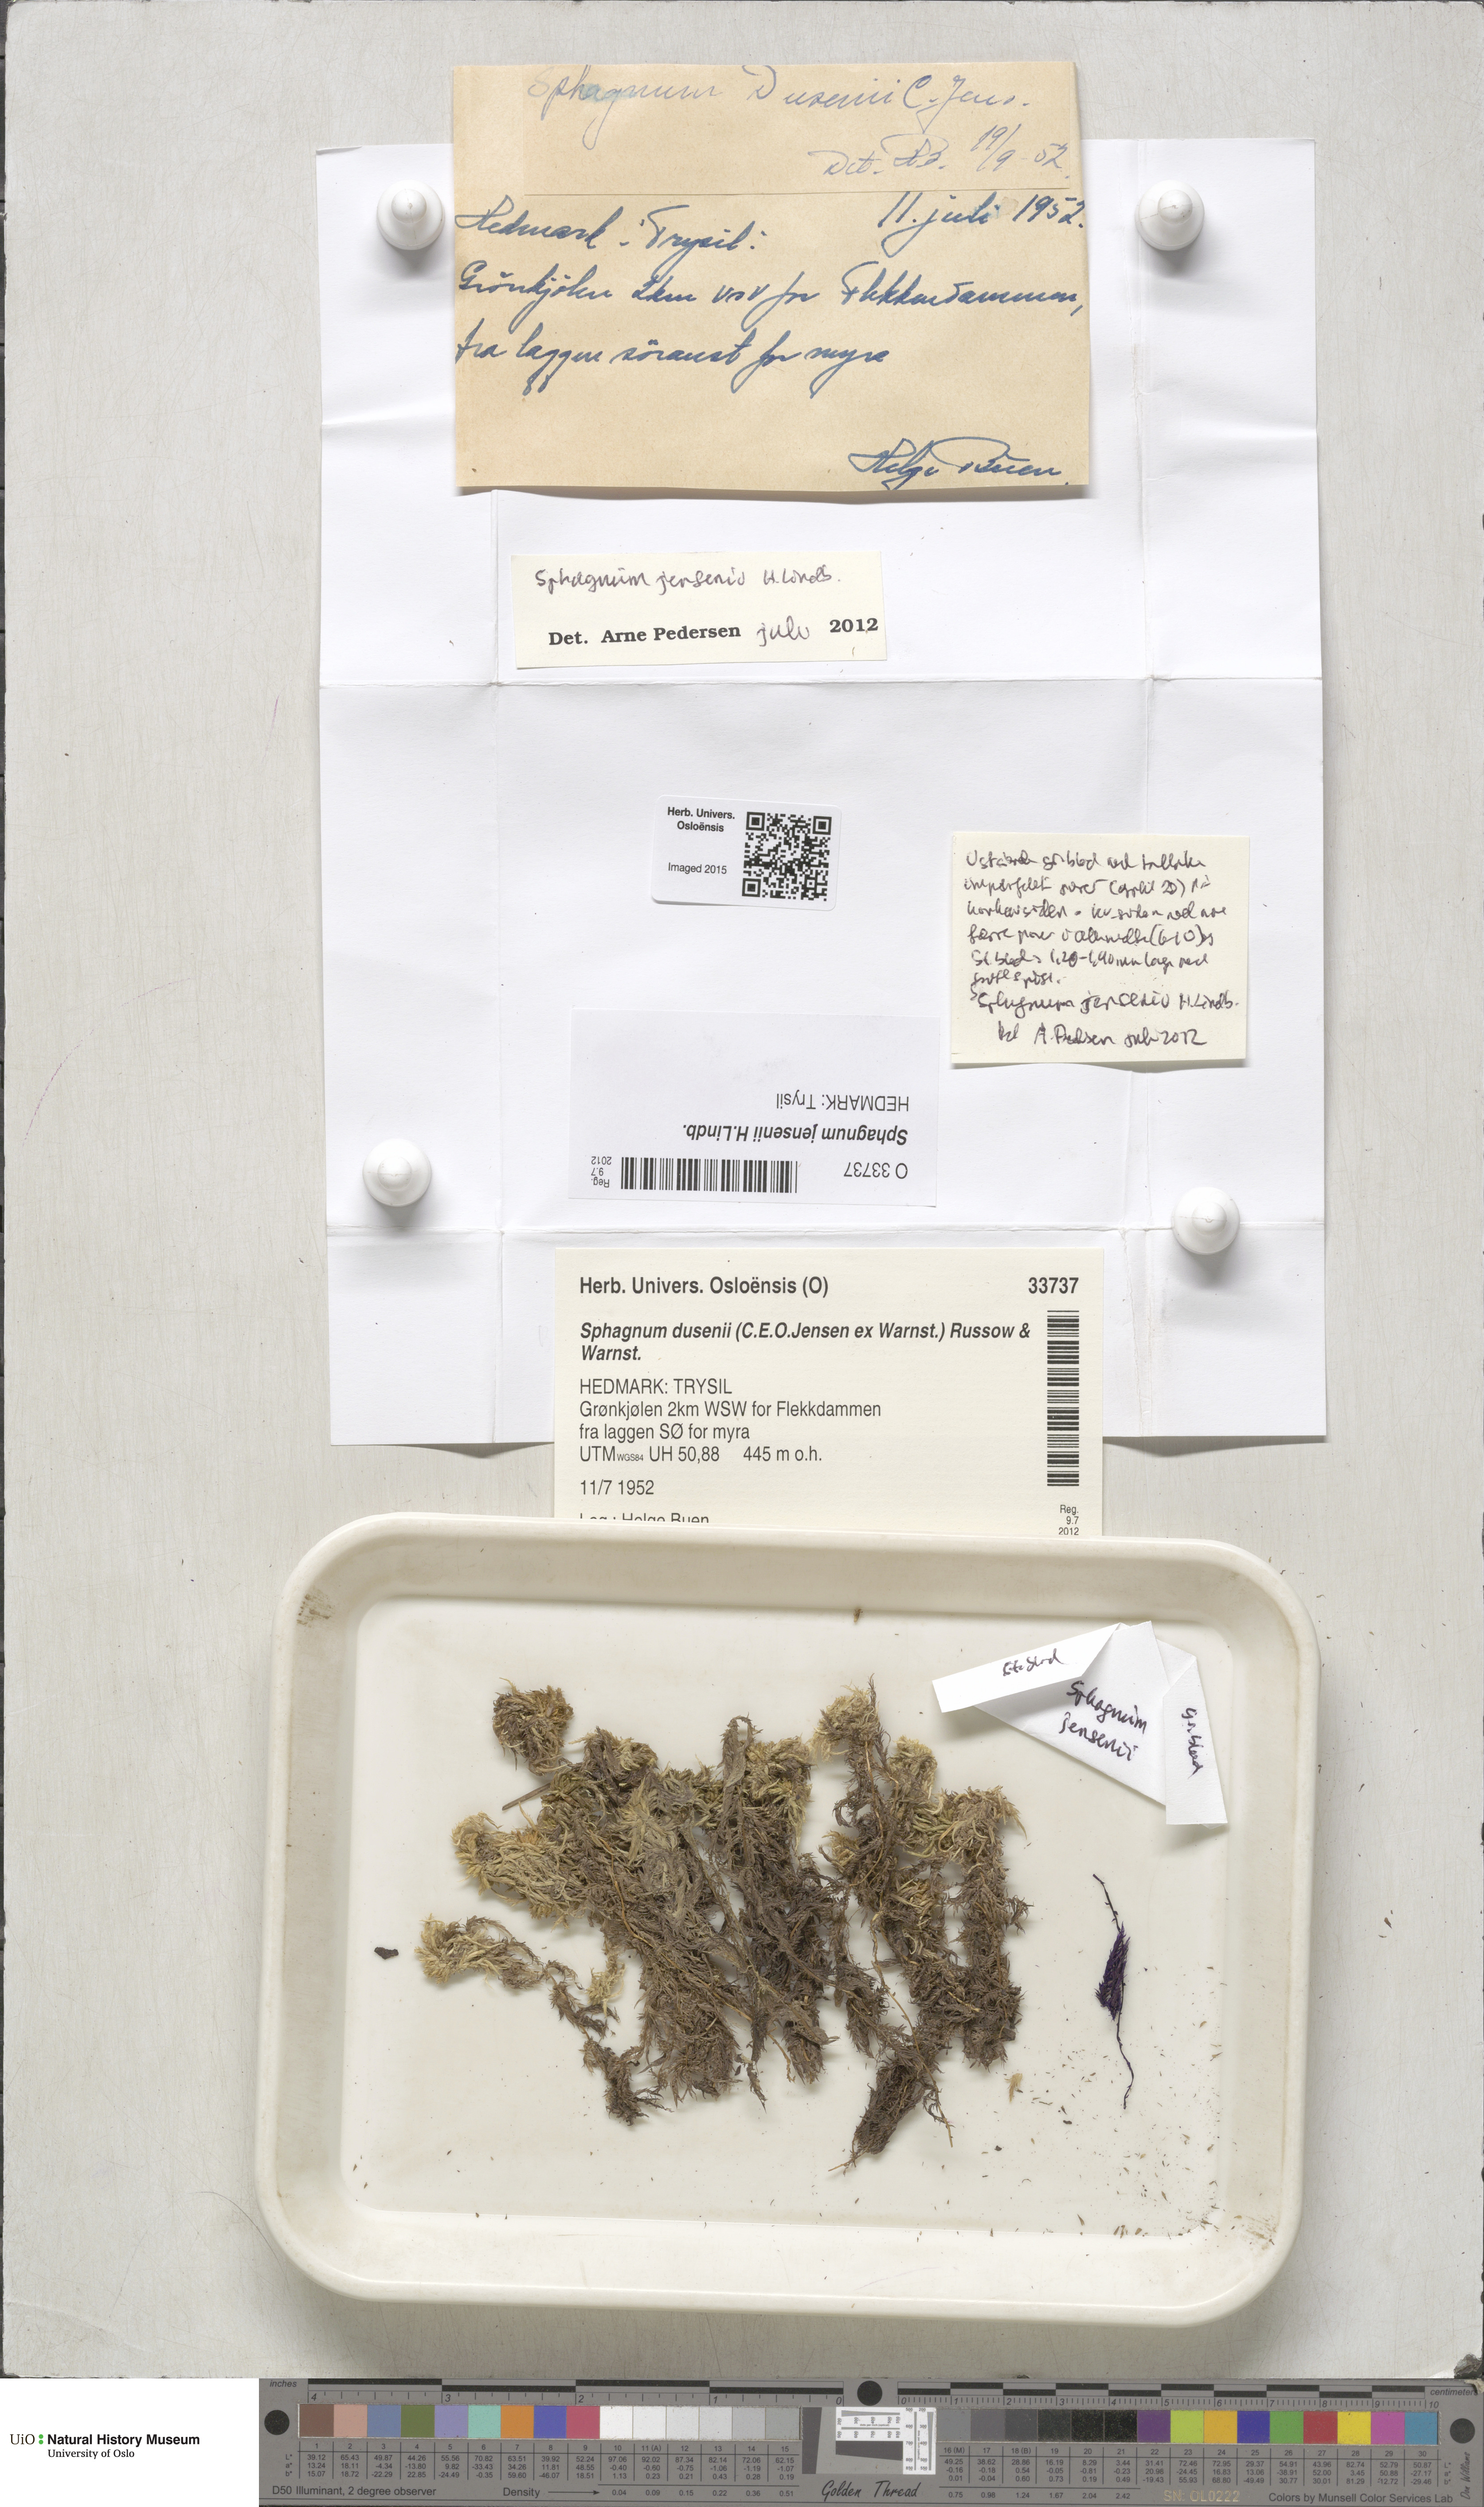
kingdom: Plantae
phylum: Bryophyta
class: Sphagnopsida
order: Sphagnales
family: Sphagnaceae
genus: Sphagnum
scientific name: Sphagnum jensenii
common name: Jensen's peat moss
